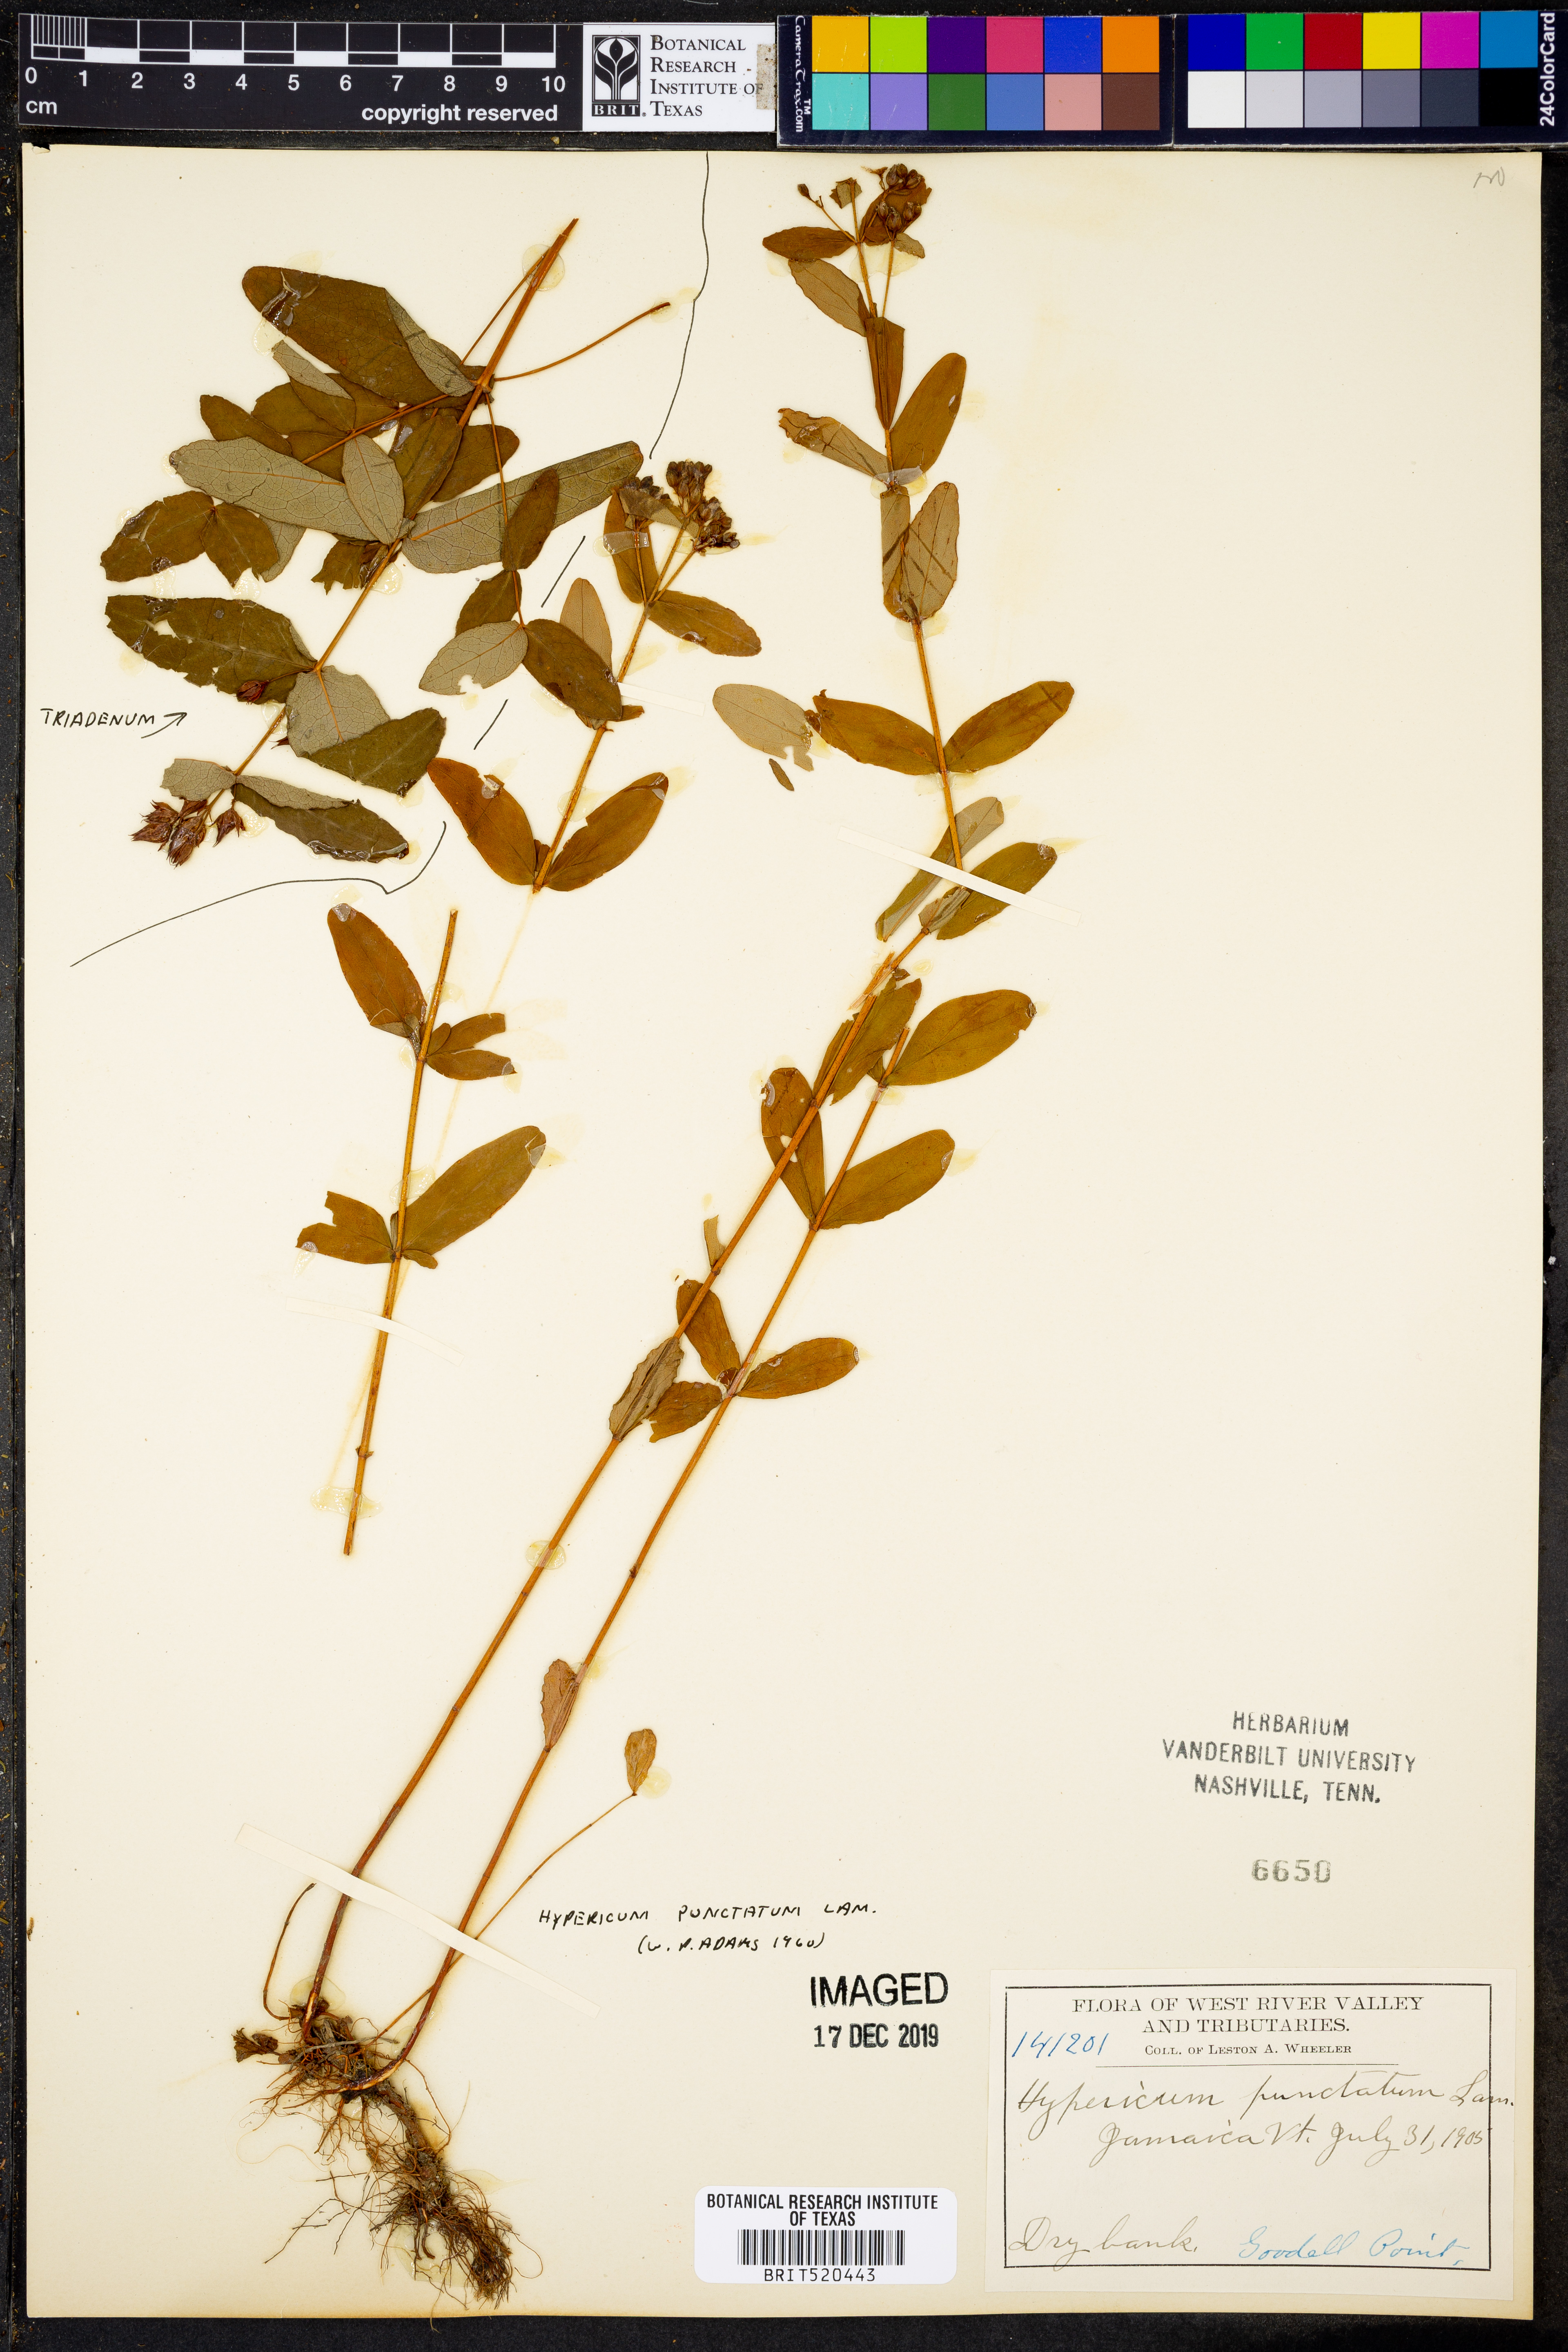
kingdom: Plantae
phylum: Tracheophyta
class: Magnoliopsida
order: Malpighiales
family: Hypericaceae
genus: Hypericum
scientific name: Hypericum punctatum
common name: Spotted st. john's-wort
